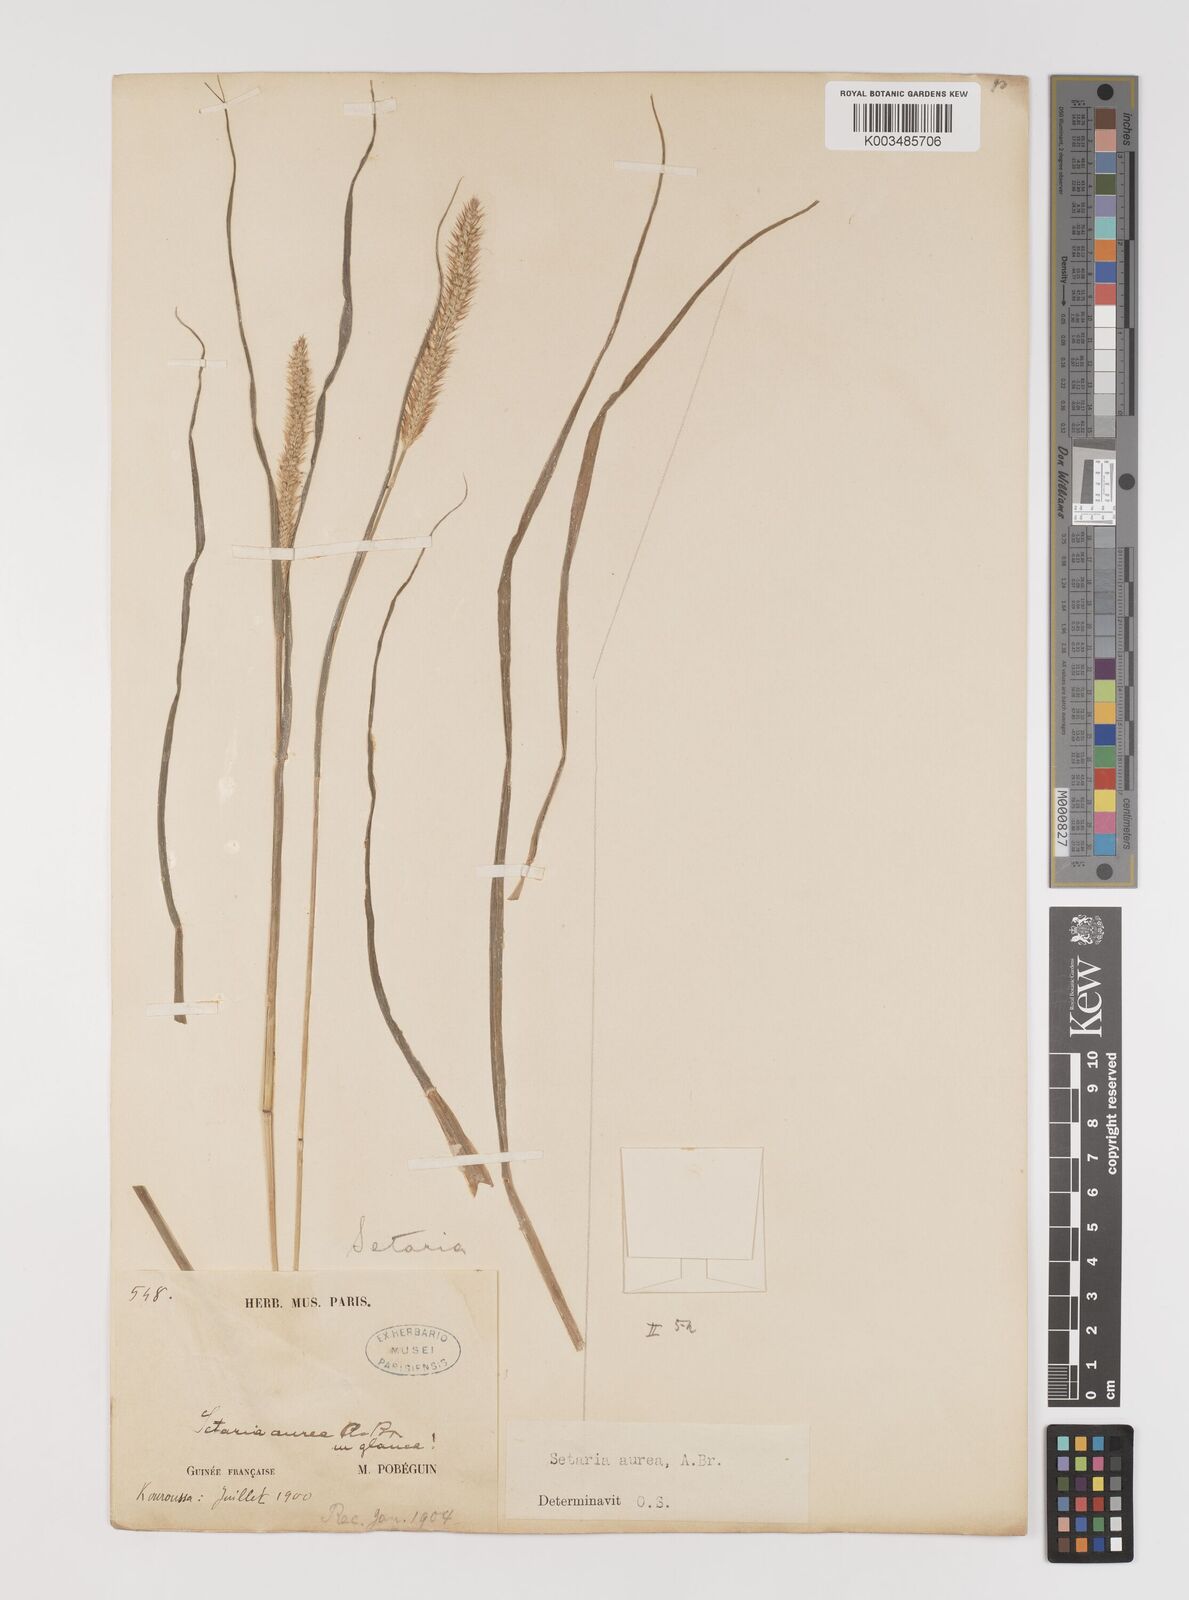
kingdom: Plantae
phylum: Tracheophyta
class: Liliopsida
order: Poales
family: Poaceae
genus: Setaria
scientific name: Setaria sphacelata
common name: African bristlegrass
